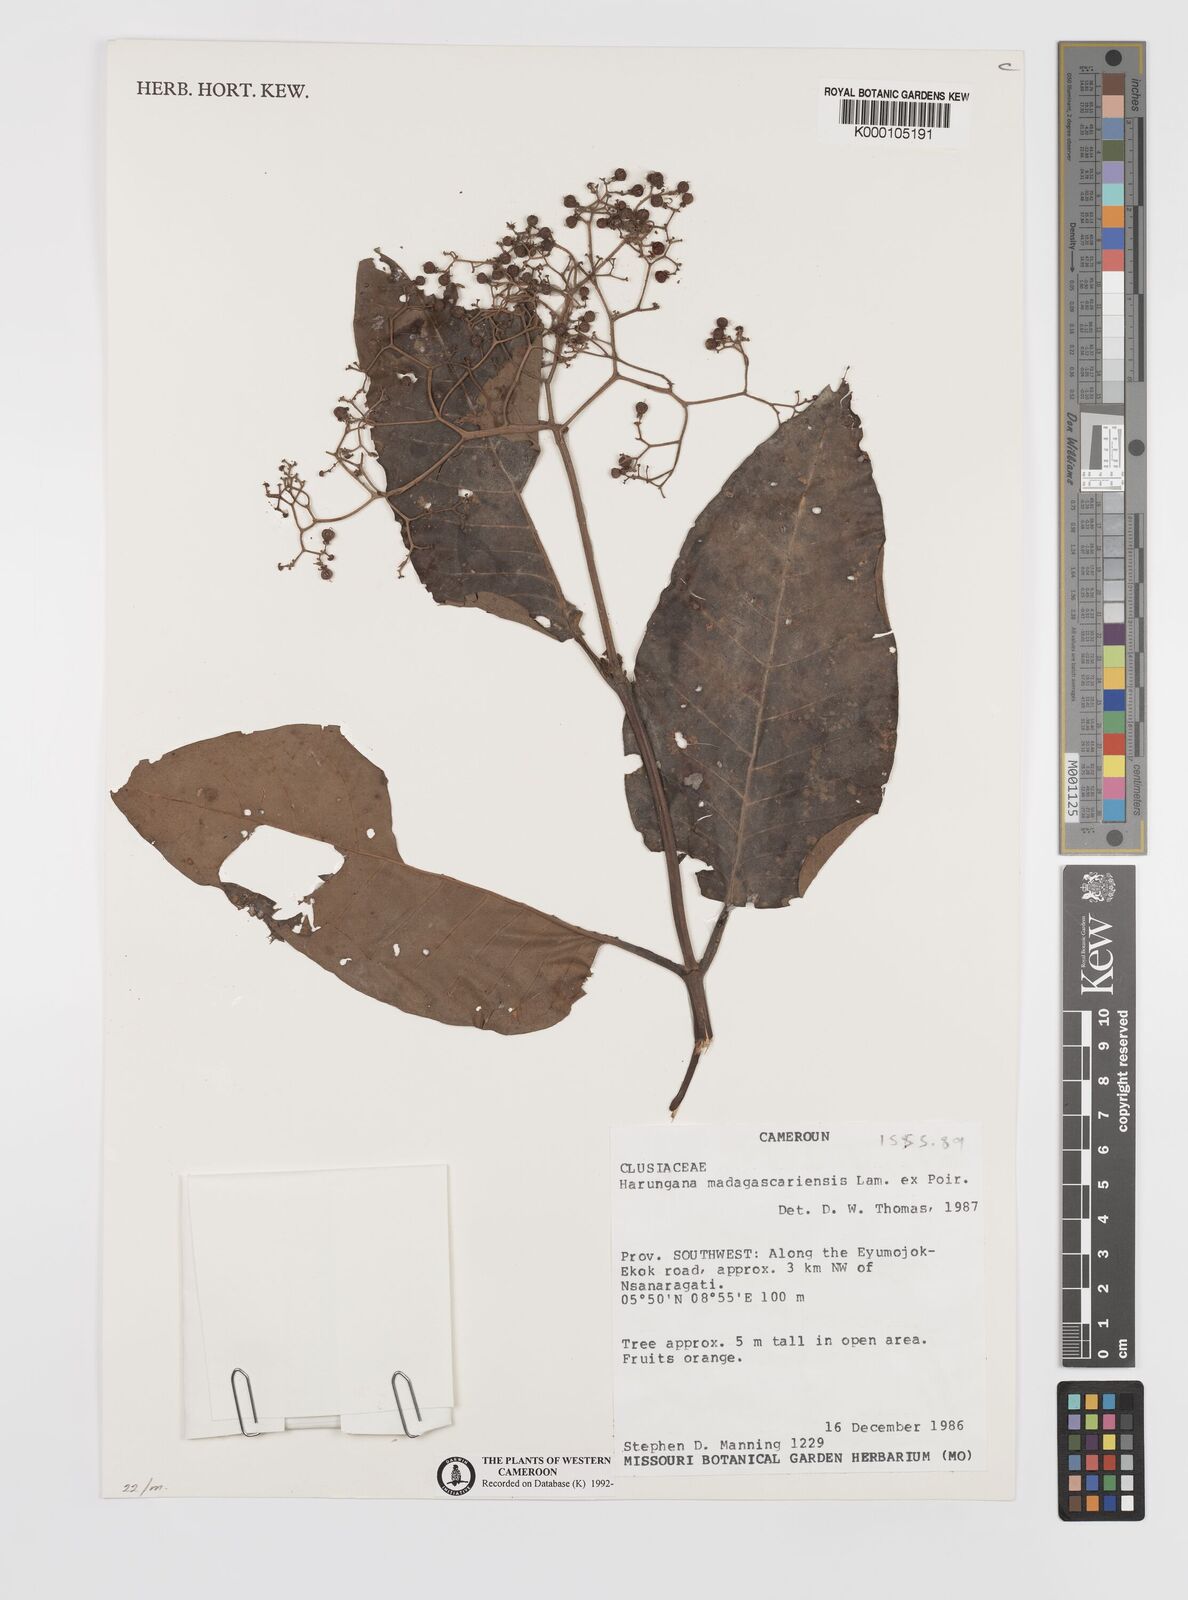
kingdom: Plantae
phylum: Tracheophyta
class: Magnoliopsida
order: Malpighiales
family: Hypericaceae
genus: Harungana
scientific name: Harungana madagascariensis
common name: Orange milktree
